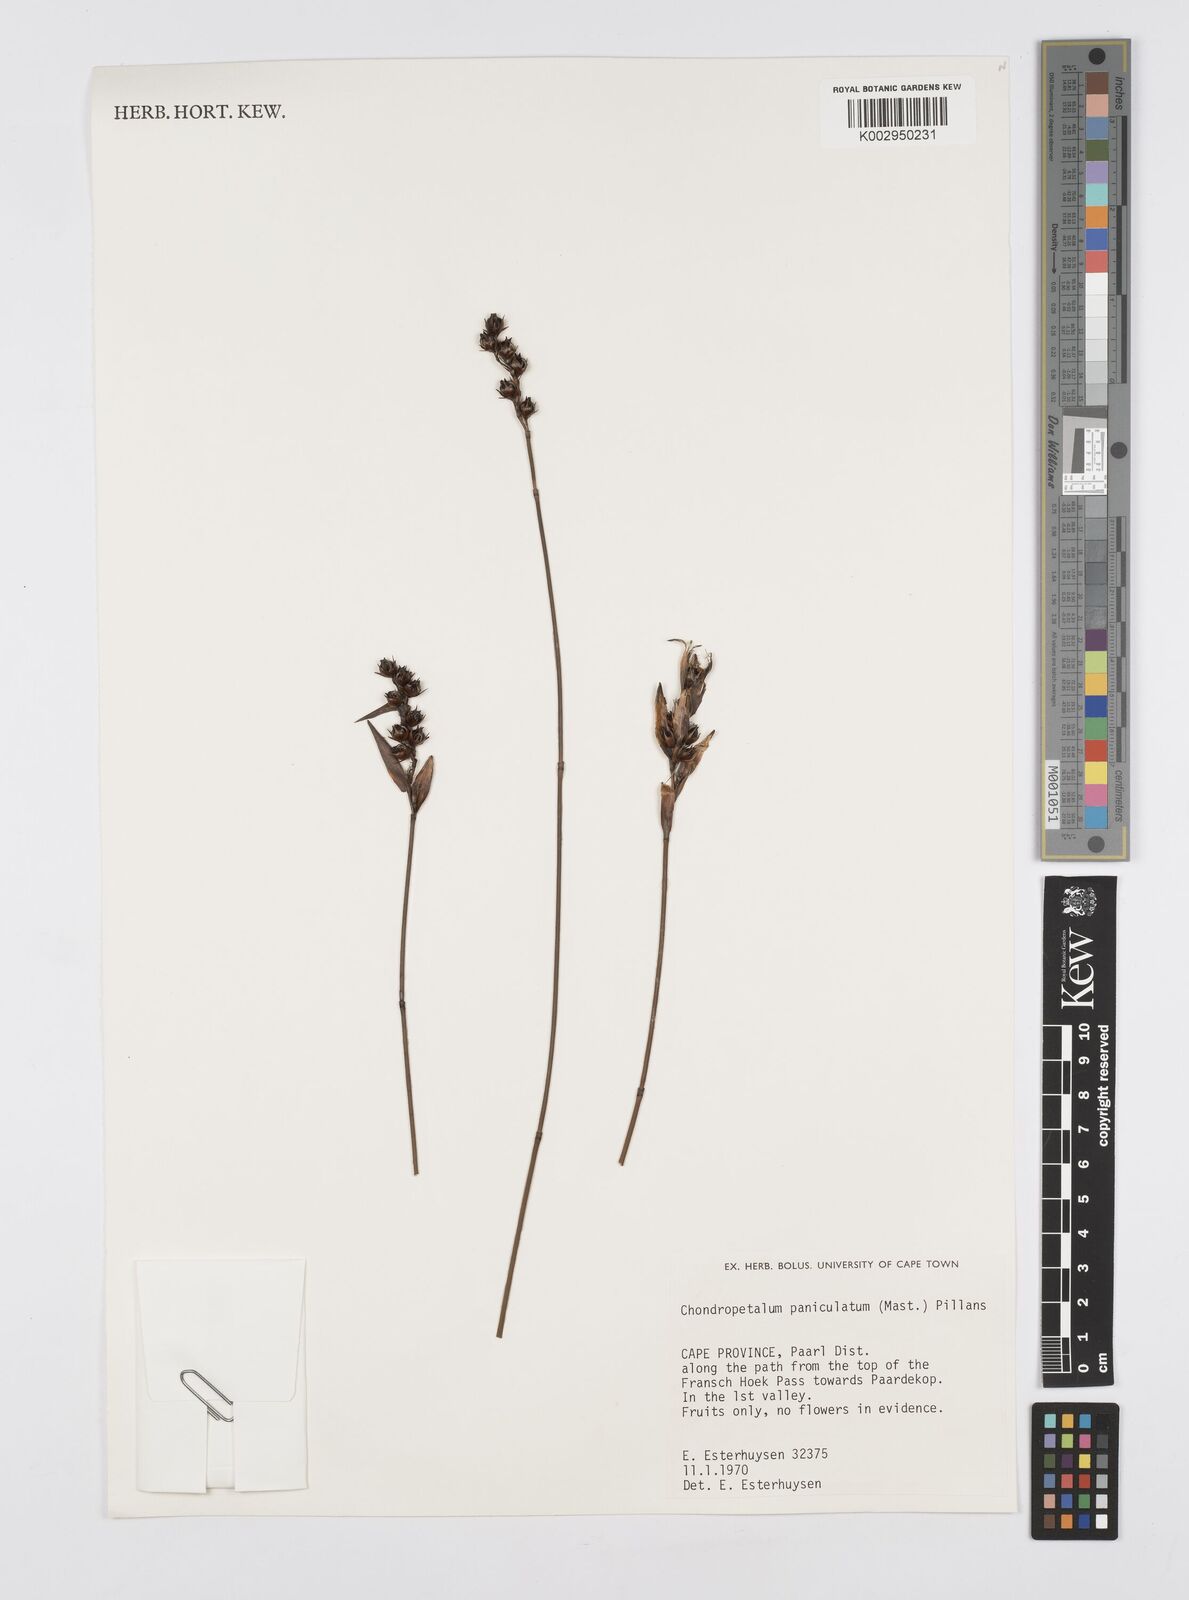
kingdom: Plantae
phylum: Tracheophyta
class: Liliopsida
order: Poales
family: Restionaceae
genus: Askidiosperma
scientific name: Askidiosperma paniculatum
